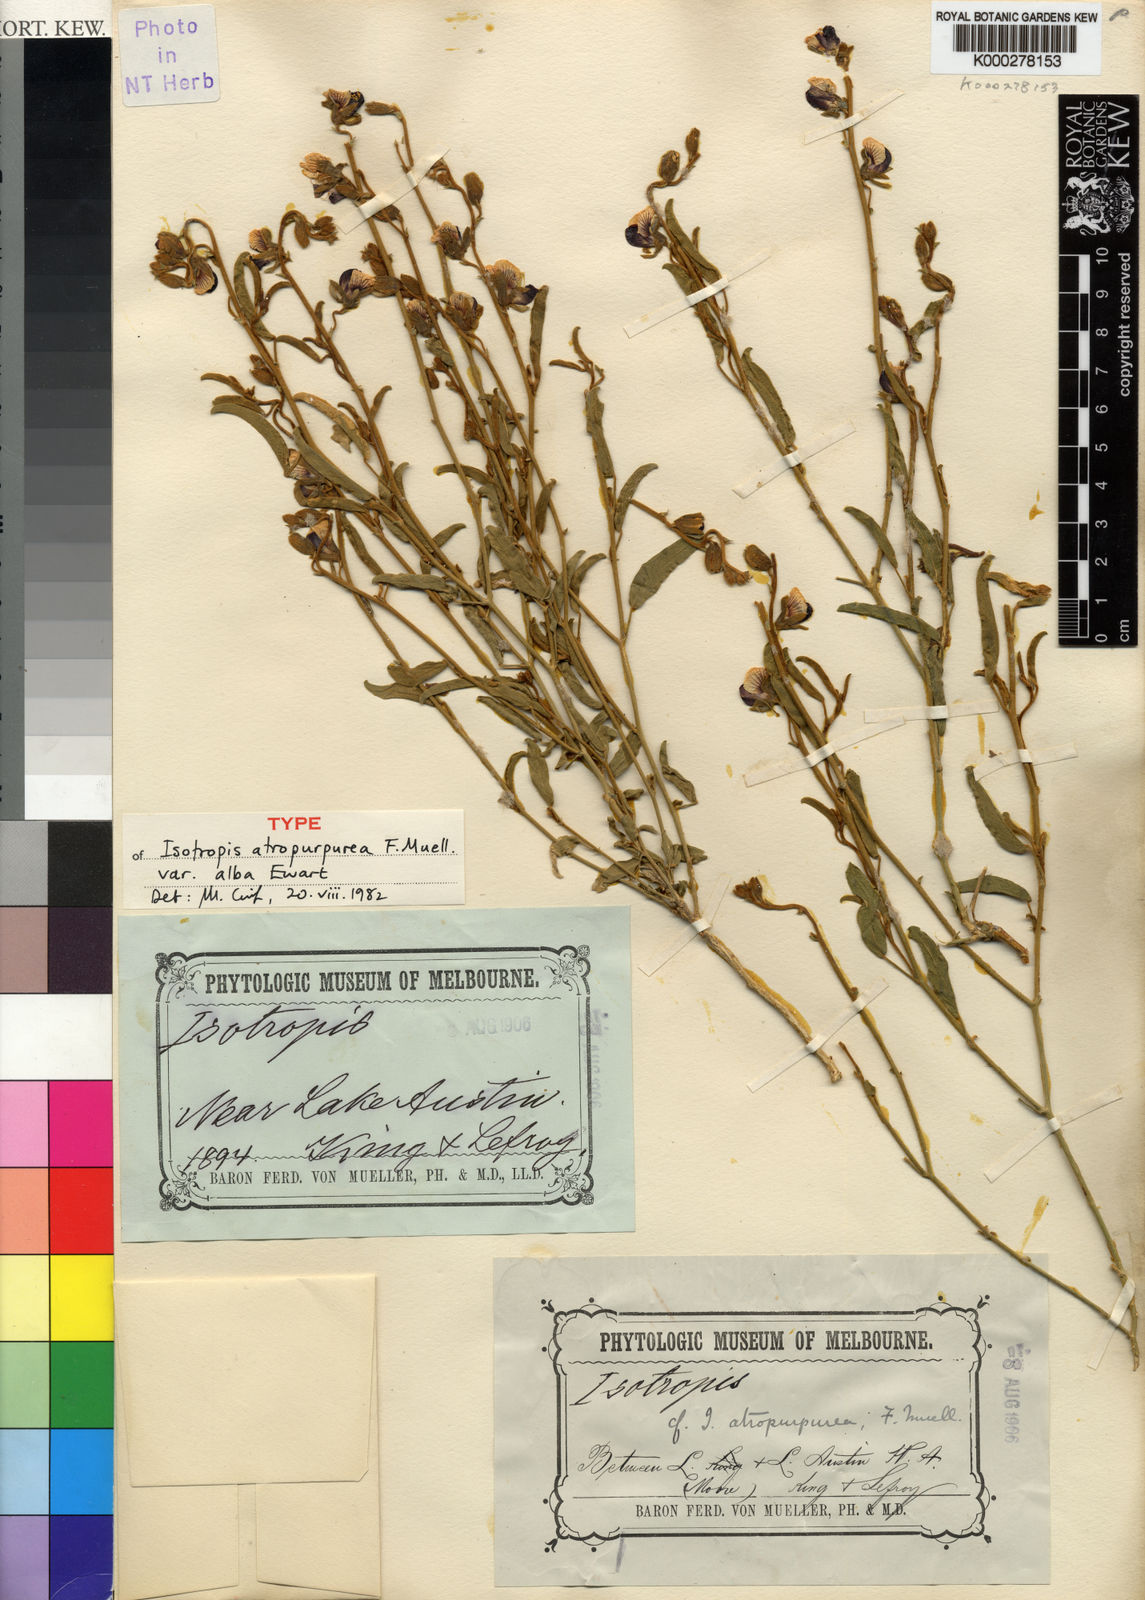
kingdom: Plantae
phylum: Tracheophyta
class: Magnoliopsida
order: Fabales
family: Fabaceae
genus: Isotropis
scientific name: Isotropis atropurpurea
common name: Poison-sage
